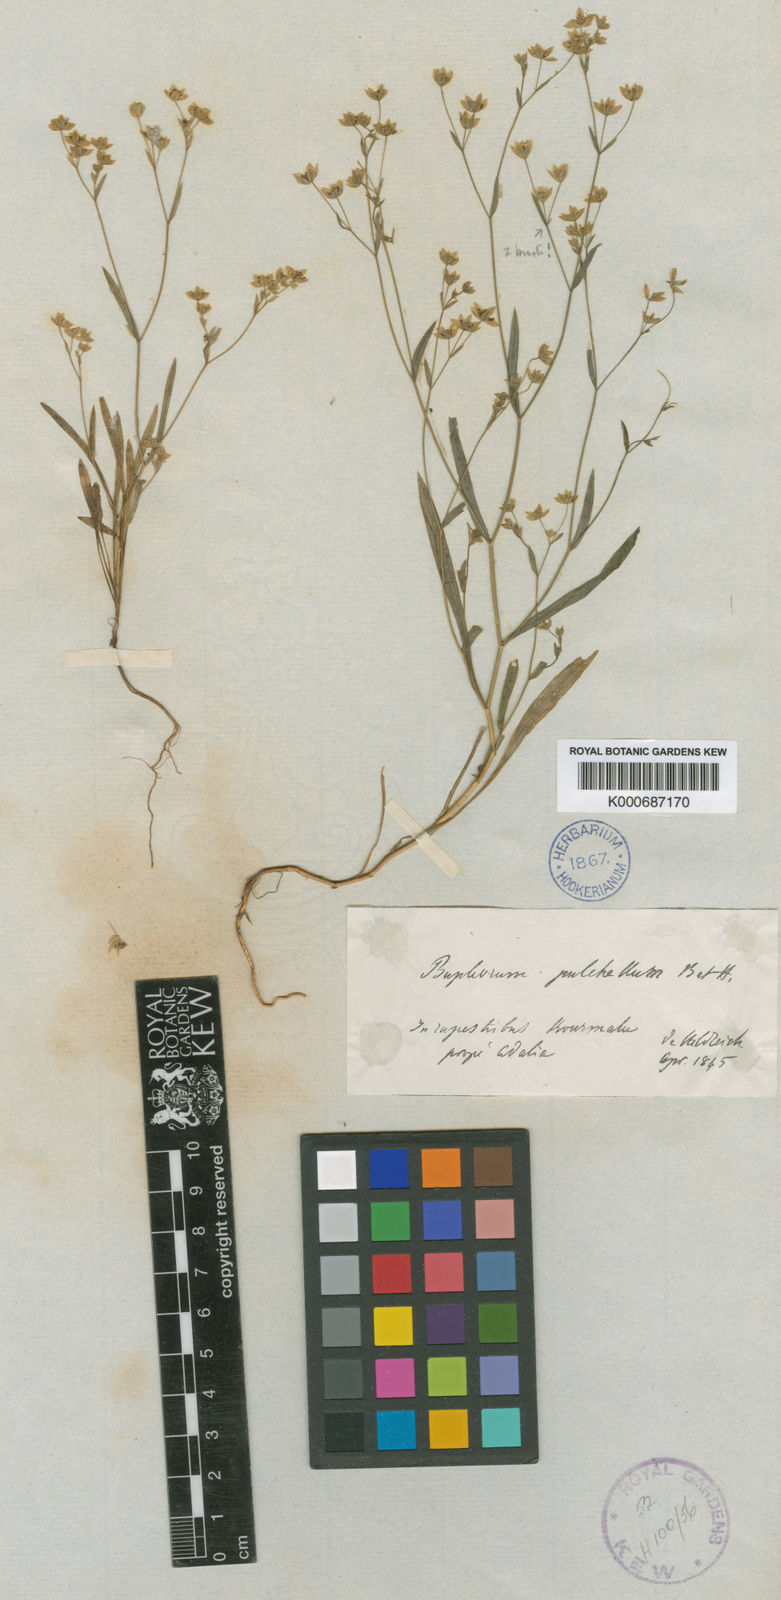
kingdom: Plantae
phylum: Tracheophyta
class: Magnoliopsida
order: Apiales
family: Apiaceae
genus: Bupleurum
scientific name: Bupleurum pulchellum
